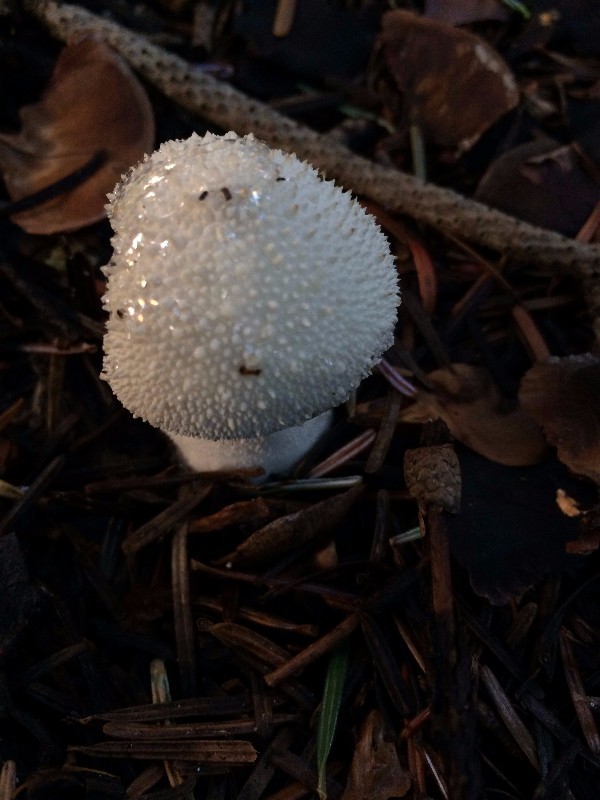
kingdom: Fungi
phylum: Basidiomycota
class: Agaricomycetes
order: Agaricales
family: Lycoperdaceae
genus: Lycoperdon
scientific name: Lycoperdon perlatum
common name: krystal-støvbold
